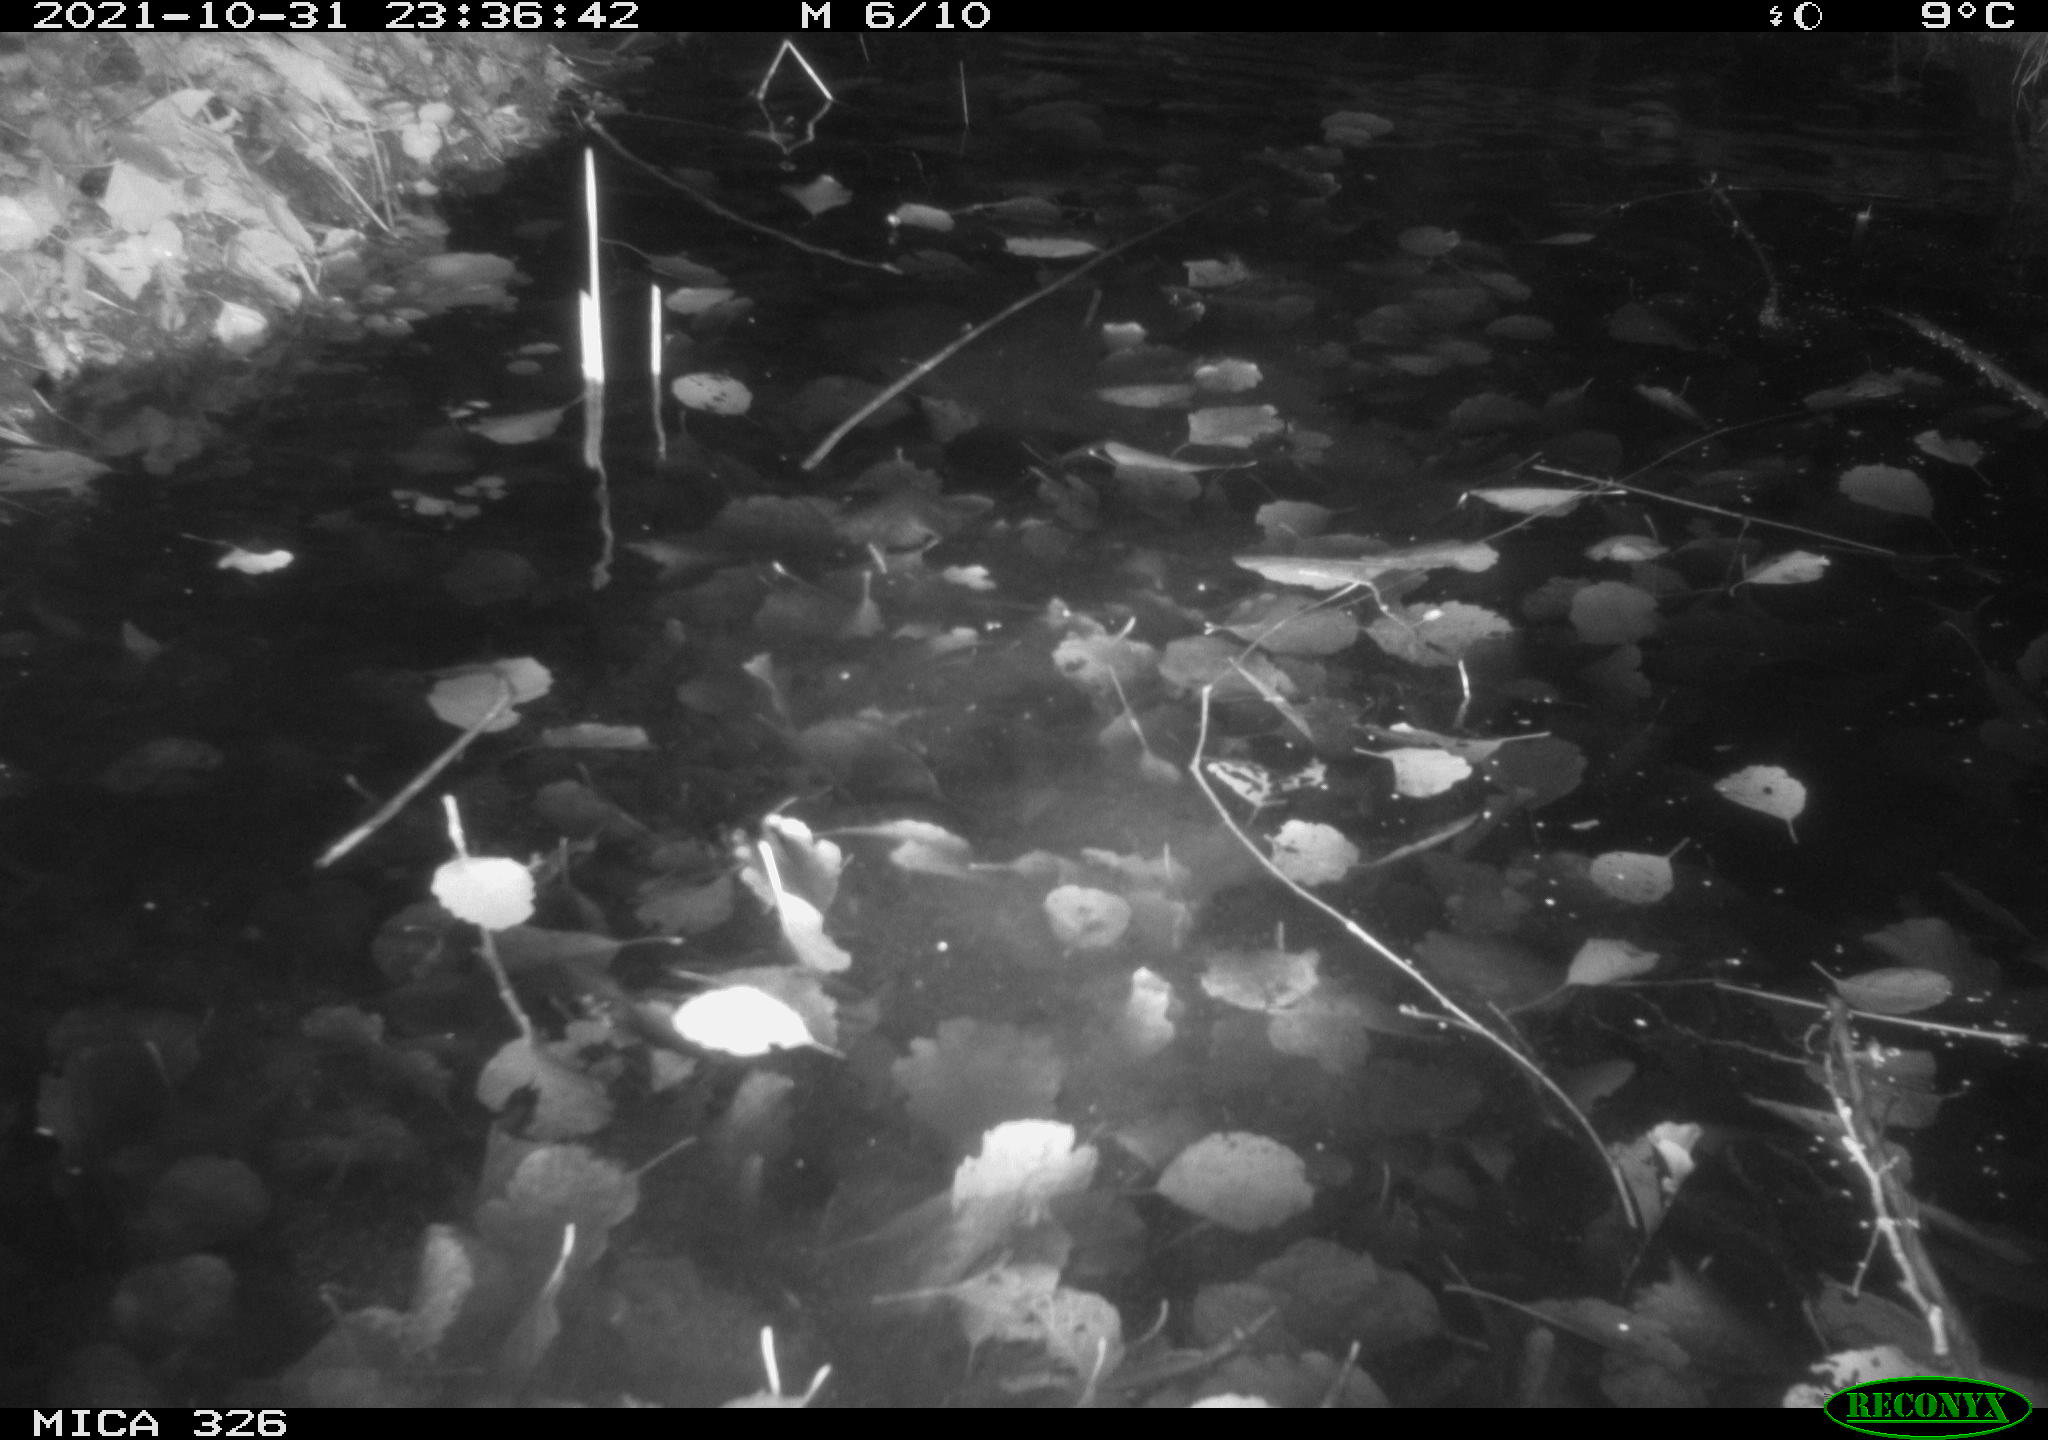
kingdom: Animalia
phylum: Chordata
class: Mammalia
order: Rodentia
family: Myocastoridae
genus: Myocastor
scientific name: Myocastor coypus
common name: Coypu
